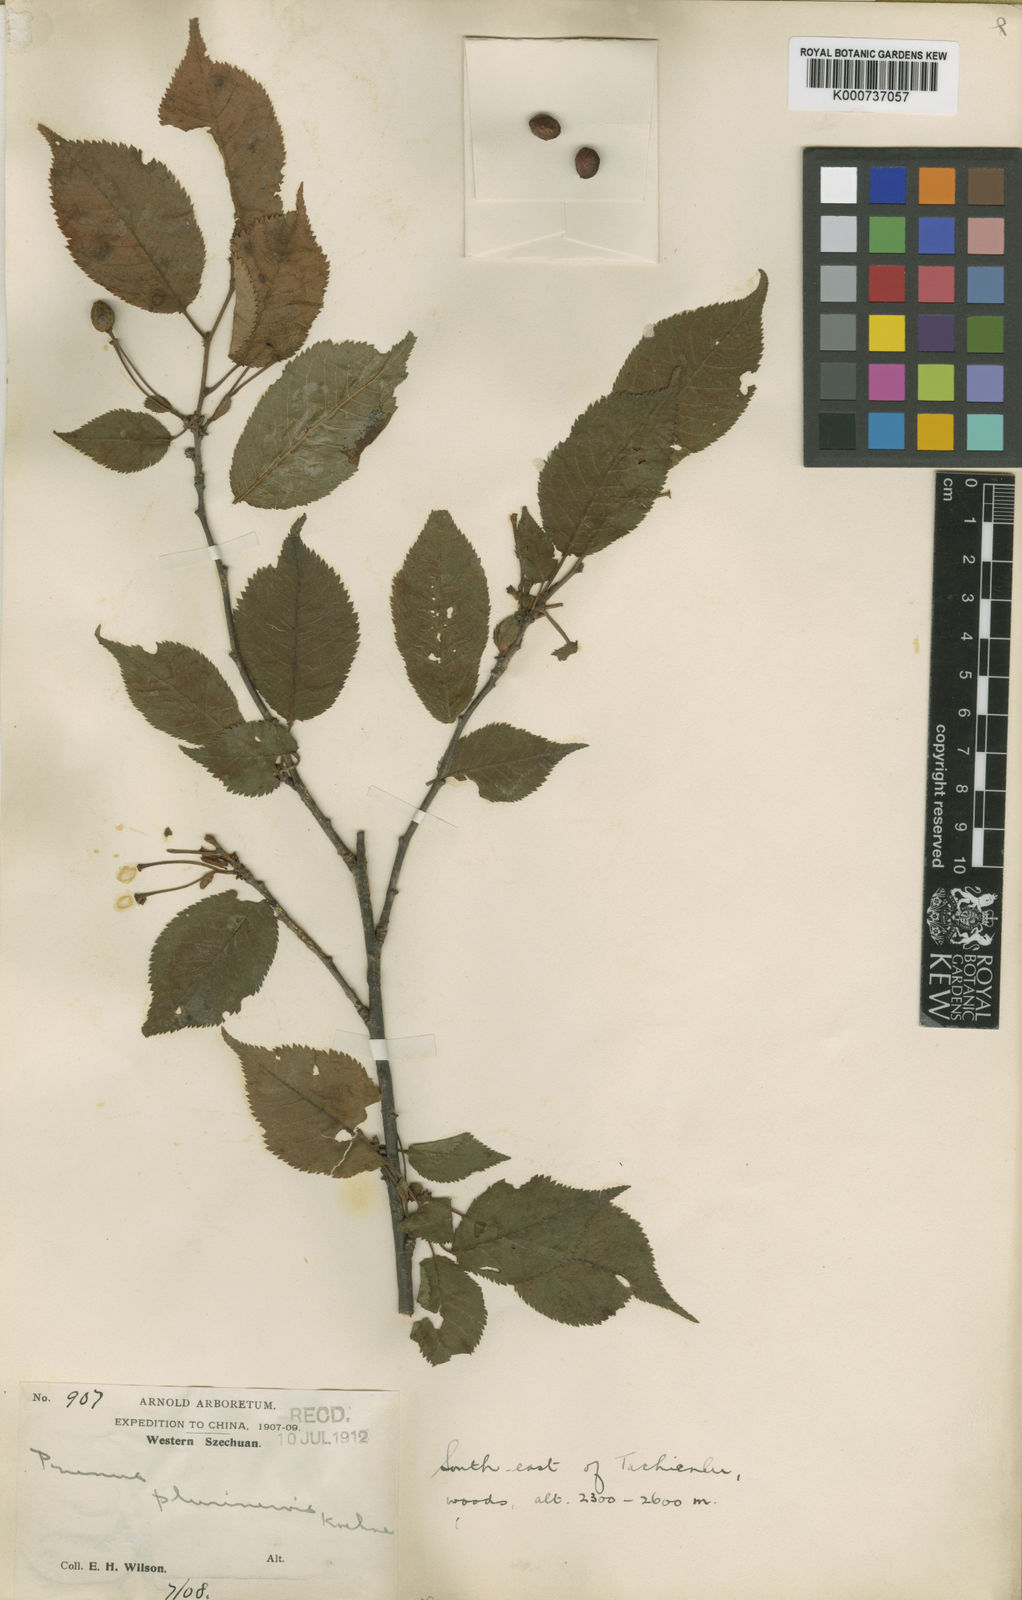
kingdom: Plantae
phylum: Tracheophyta
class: Magnoliopsida
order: Rosales
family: Rosaceae
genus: Prunus
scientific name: Prunus
